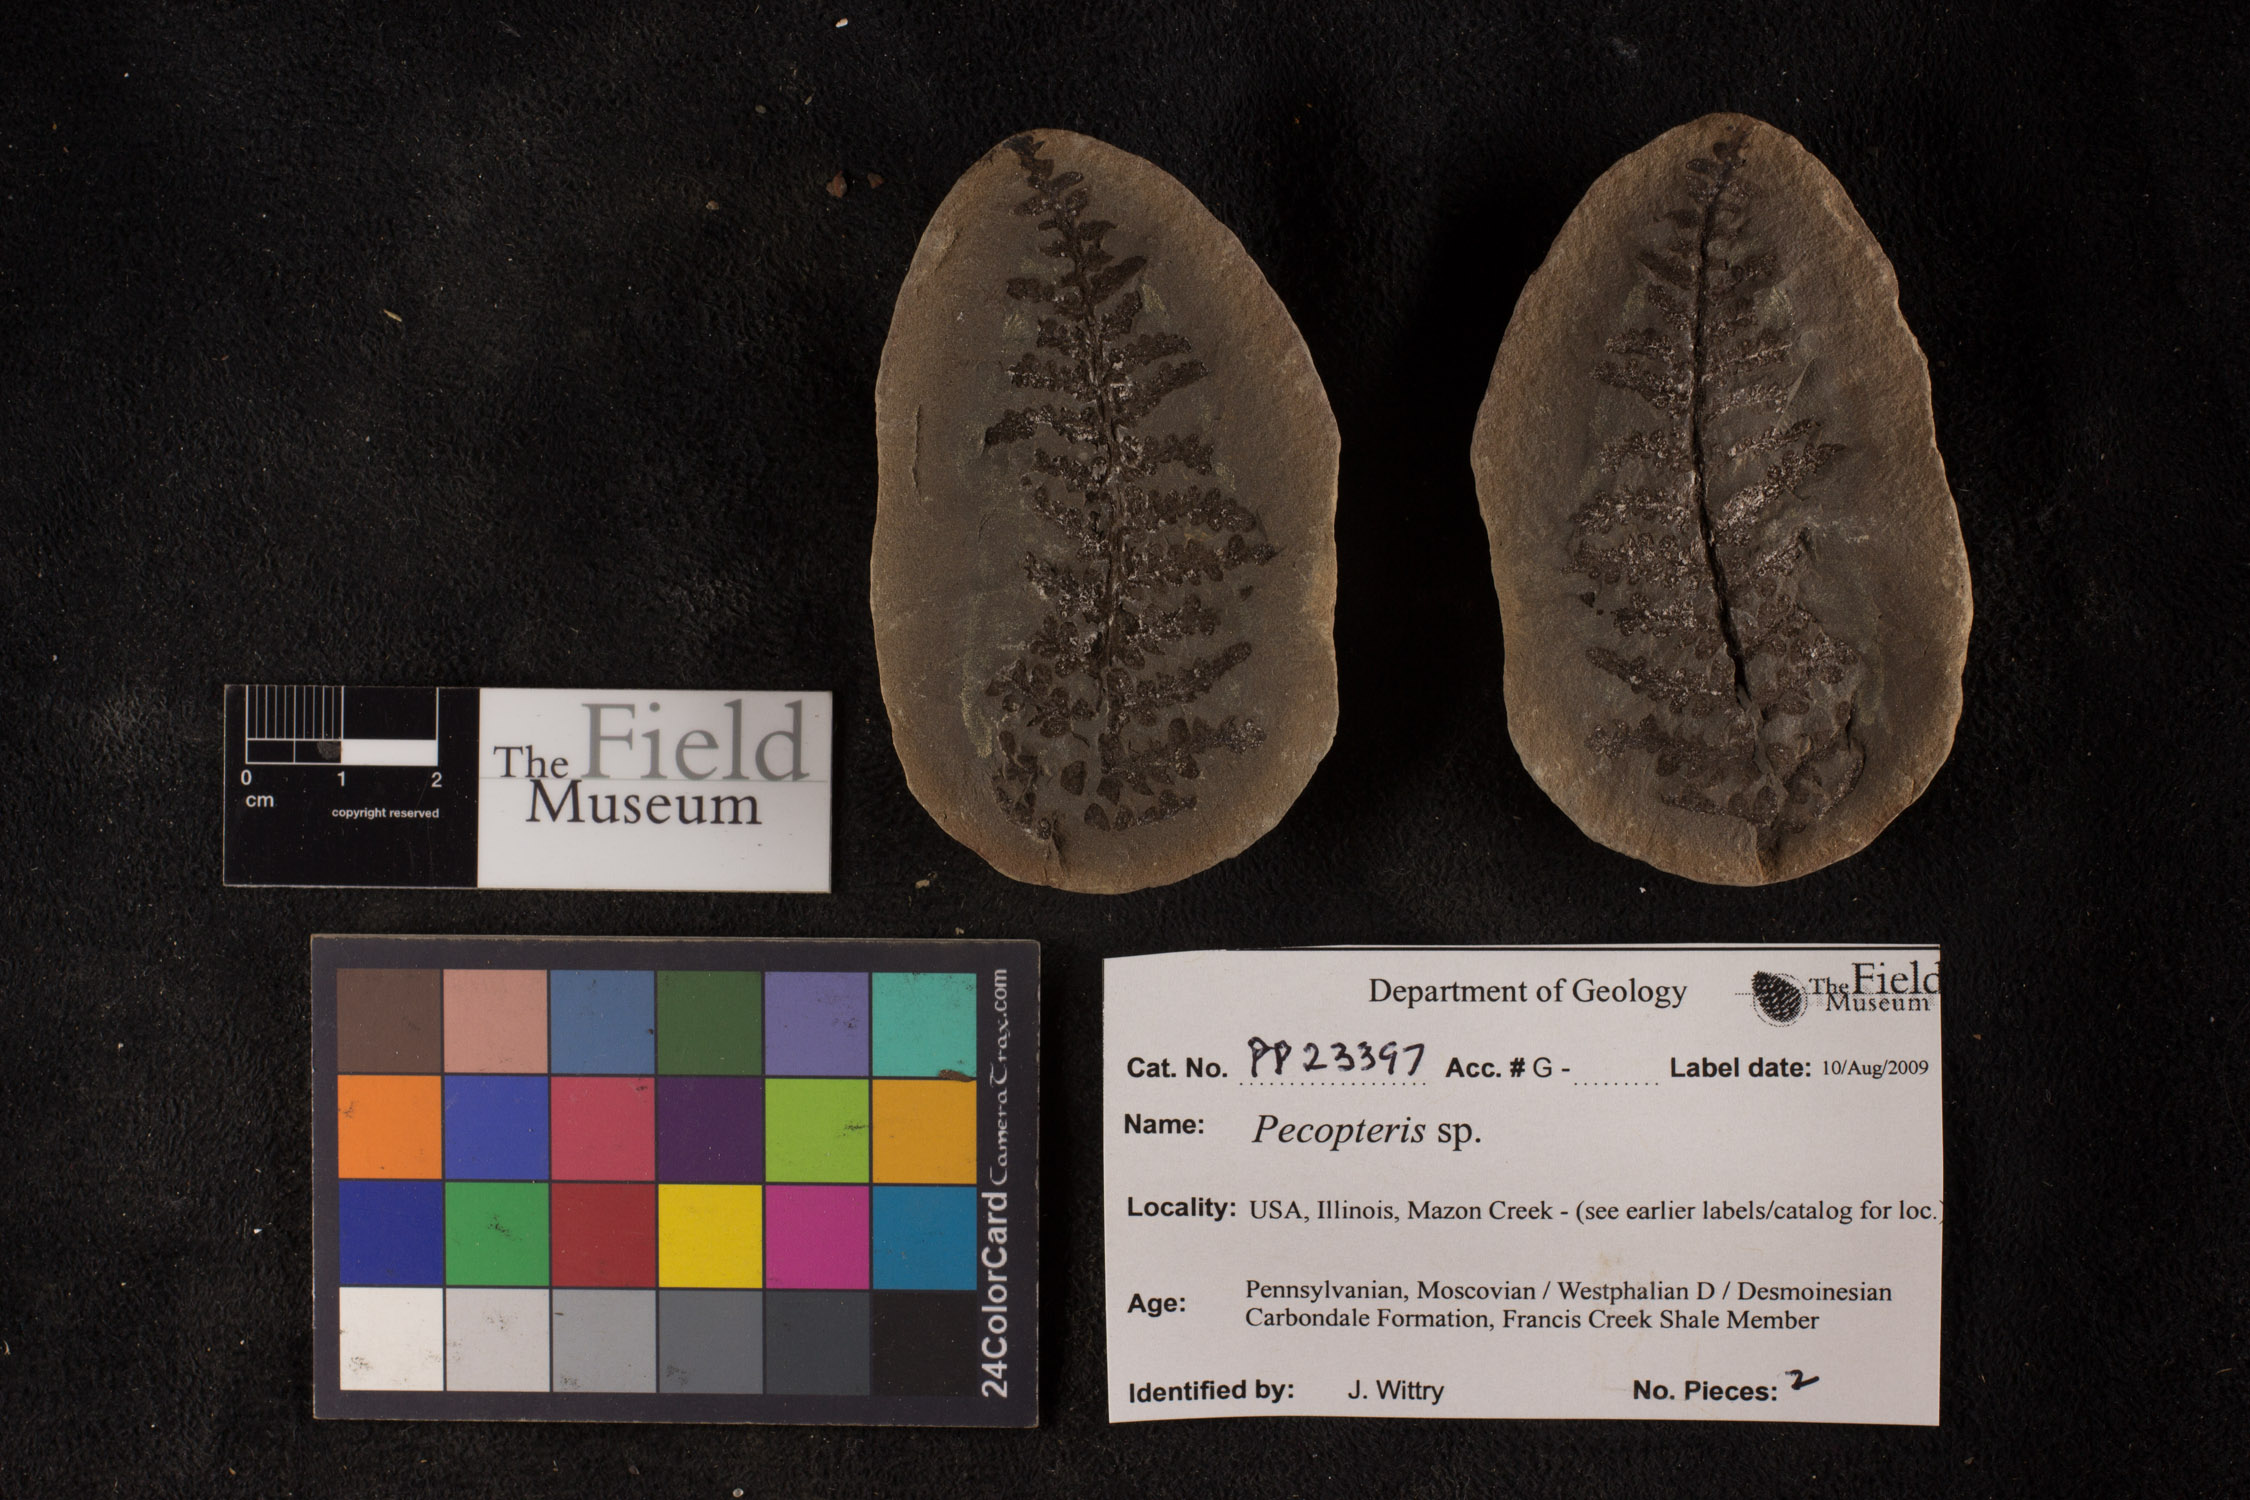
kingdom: Plantae
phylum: Tracheophyta
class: Polypodiopsida
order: Marattiales
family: Asterothecaceae
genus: Pecopteris
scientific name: Pecopteris
